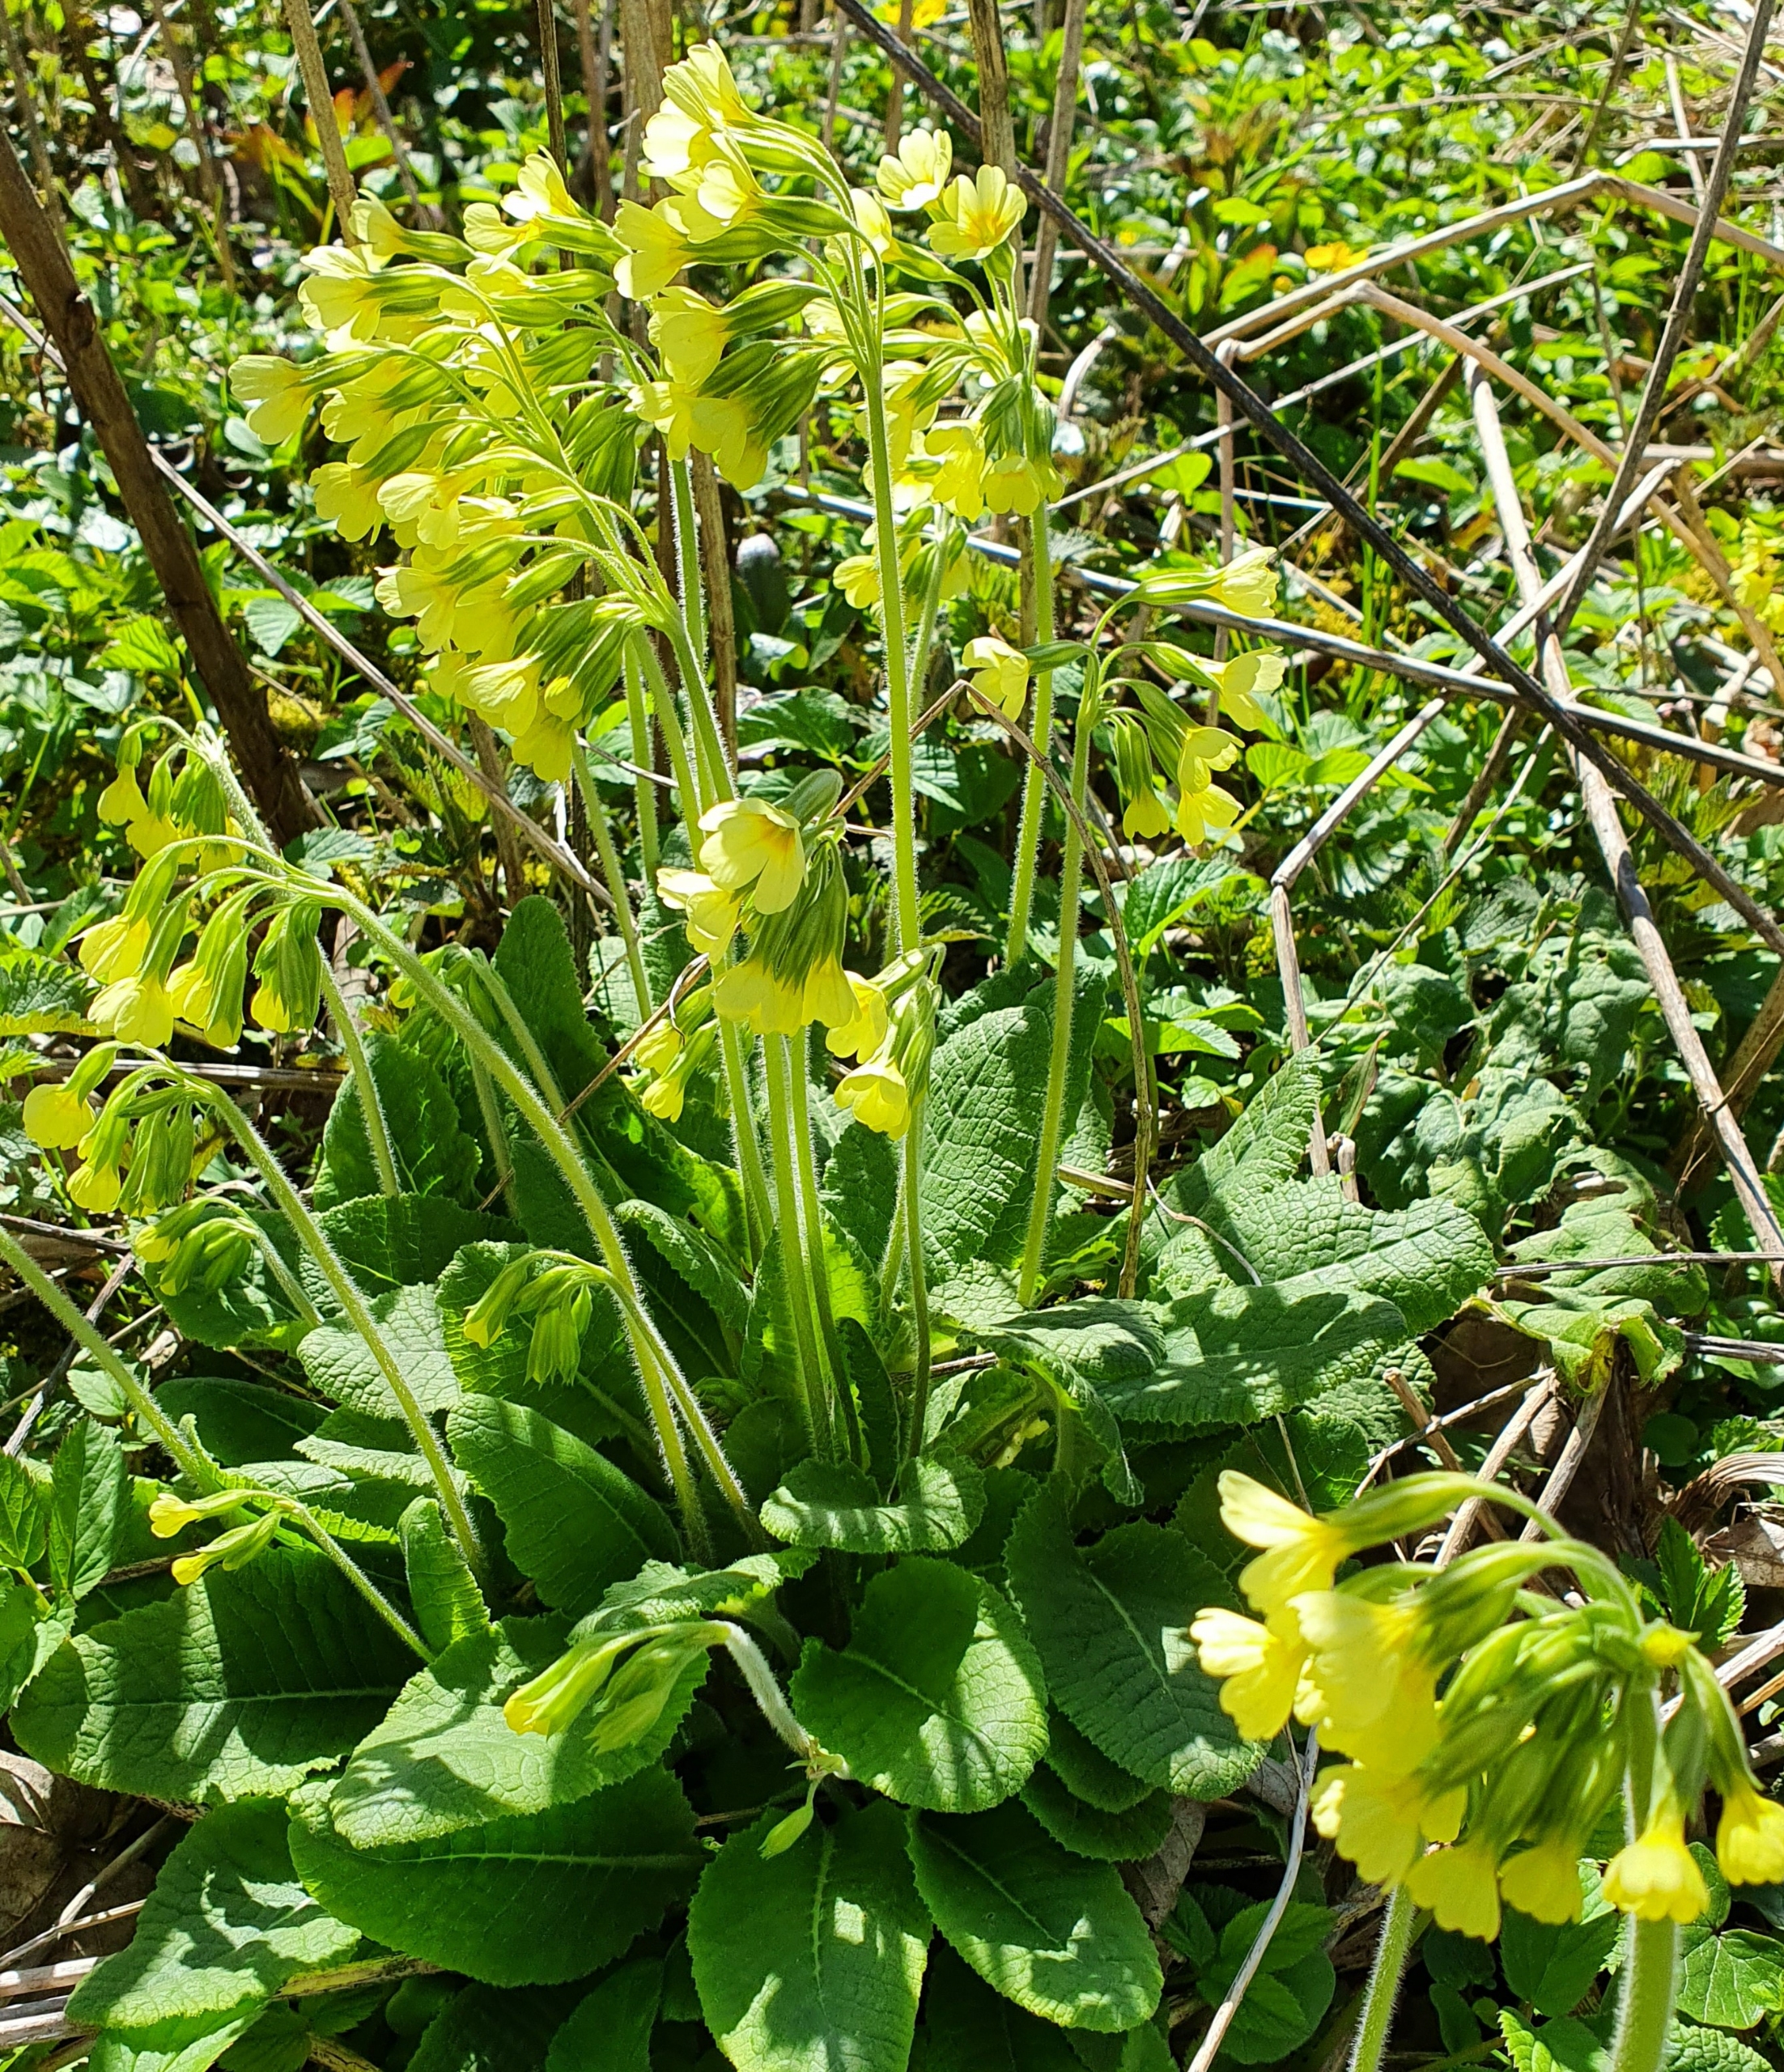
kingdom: Plantae
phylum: Tracheophyta
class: Magnoliopsida
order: Ericales
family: Primulaceae
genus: Primula
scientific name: Primula elatior
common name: Fladkravet kodriver
